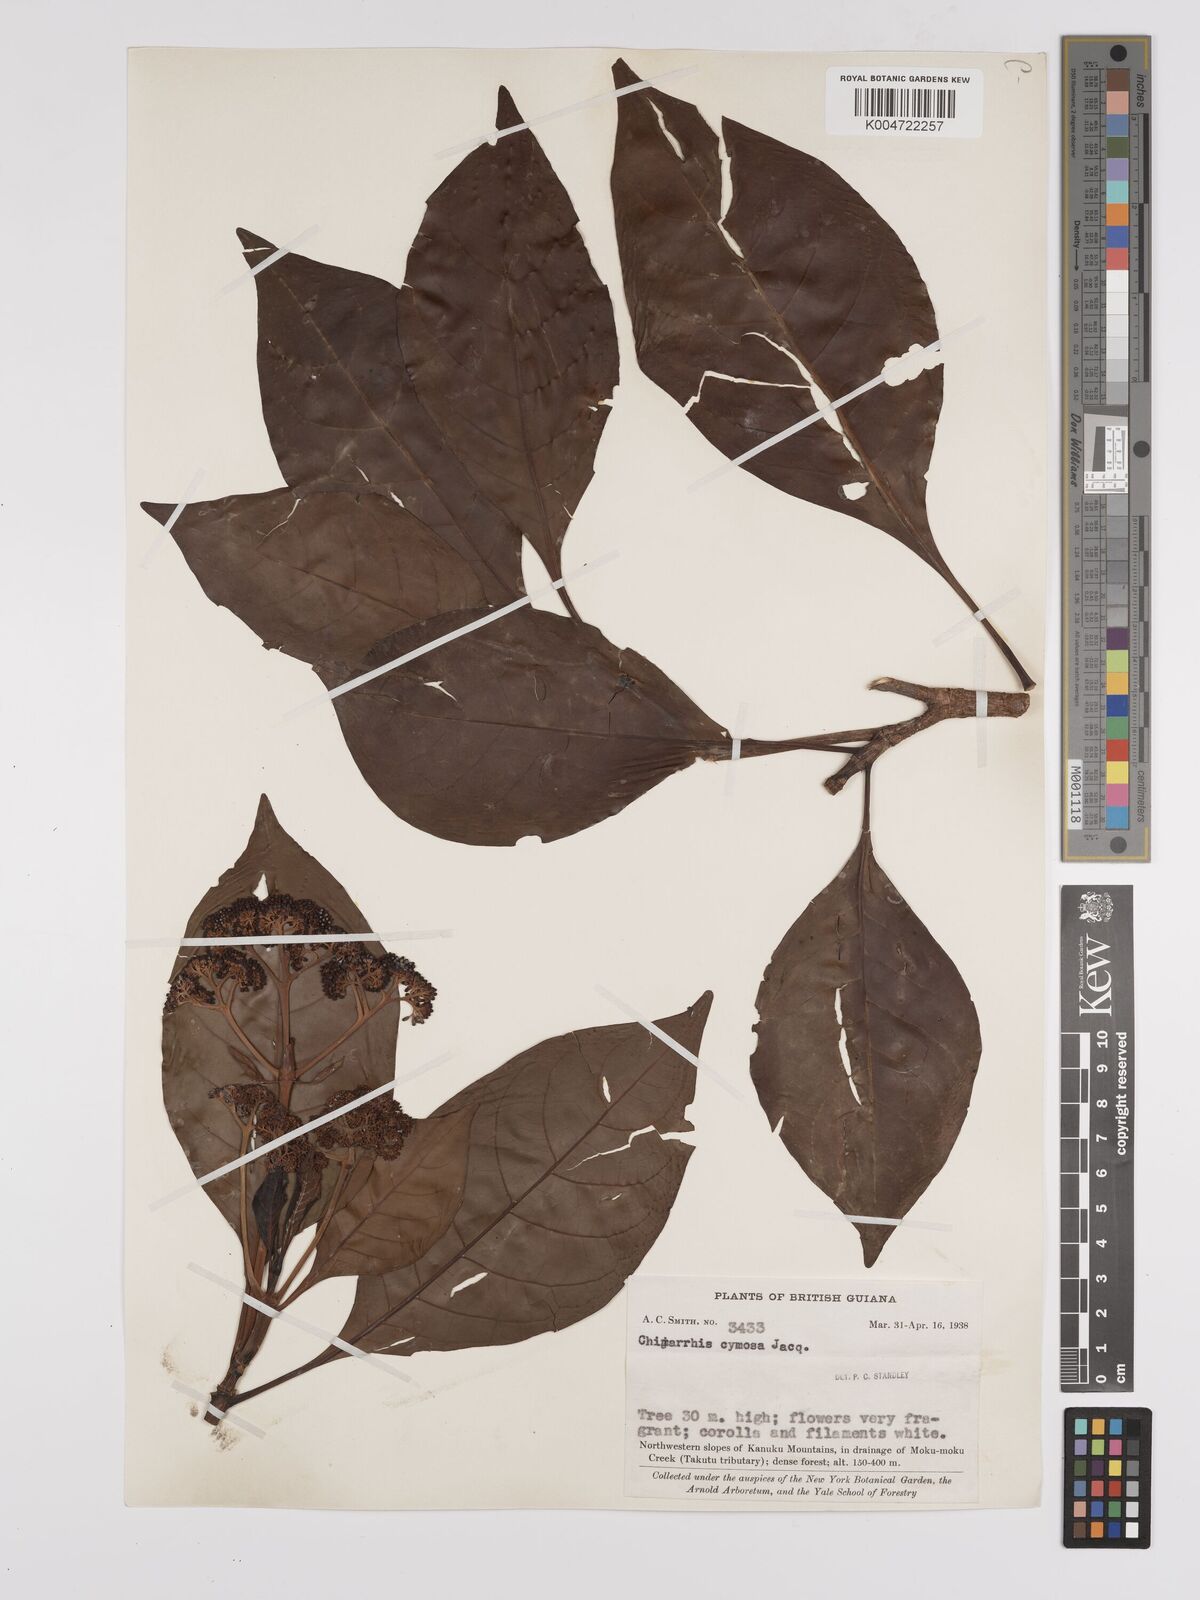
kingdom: Plantae
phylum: Tracheophyta
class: Magnoliopsida
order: Gentianales
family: Rubiaceae
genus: Chimarrhis
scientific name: Chimarrhis microcarpa
